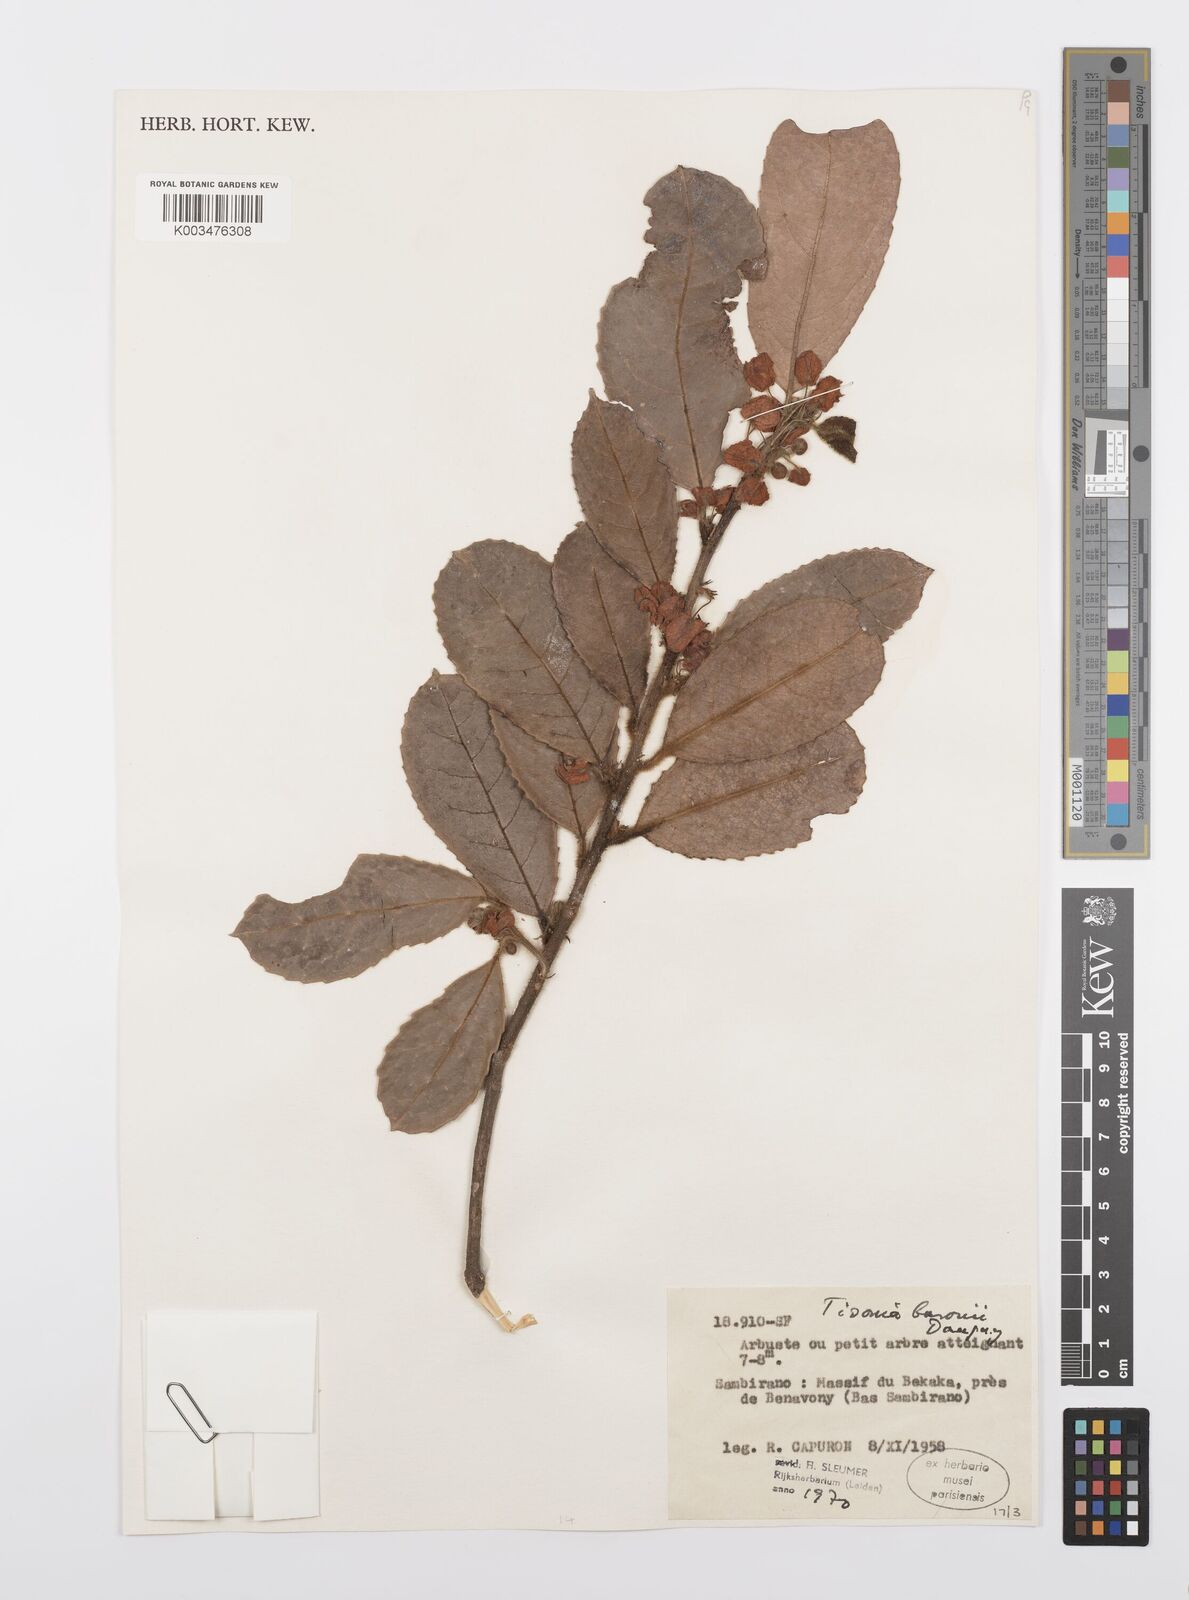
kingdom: Plantae
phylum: Tracheophyta
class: Magnoliopsida
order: Malpighiales
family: Salicaceae
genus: Tisonia
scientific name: Tisonia baronii
